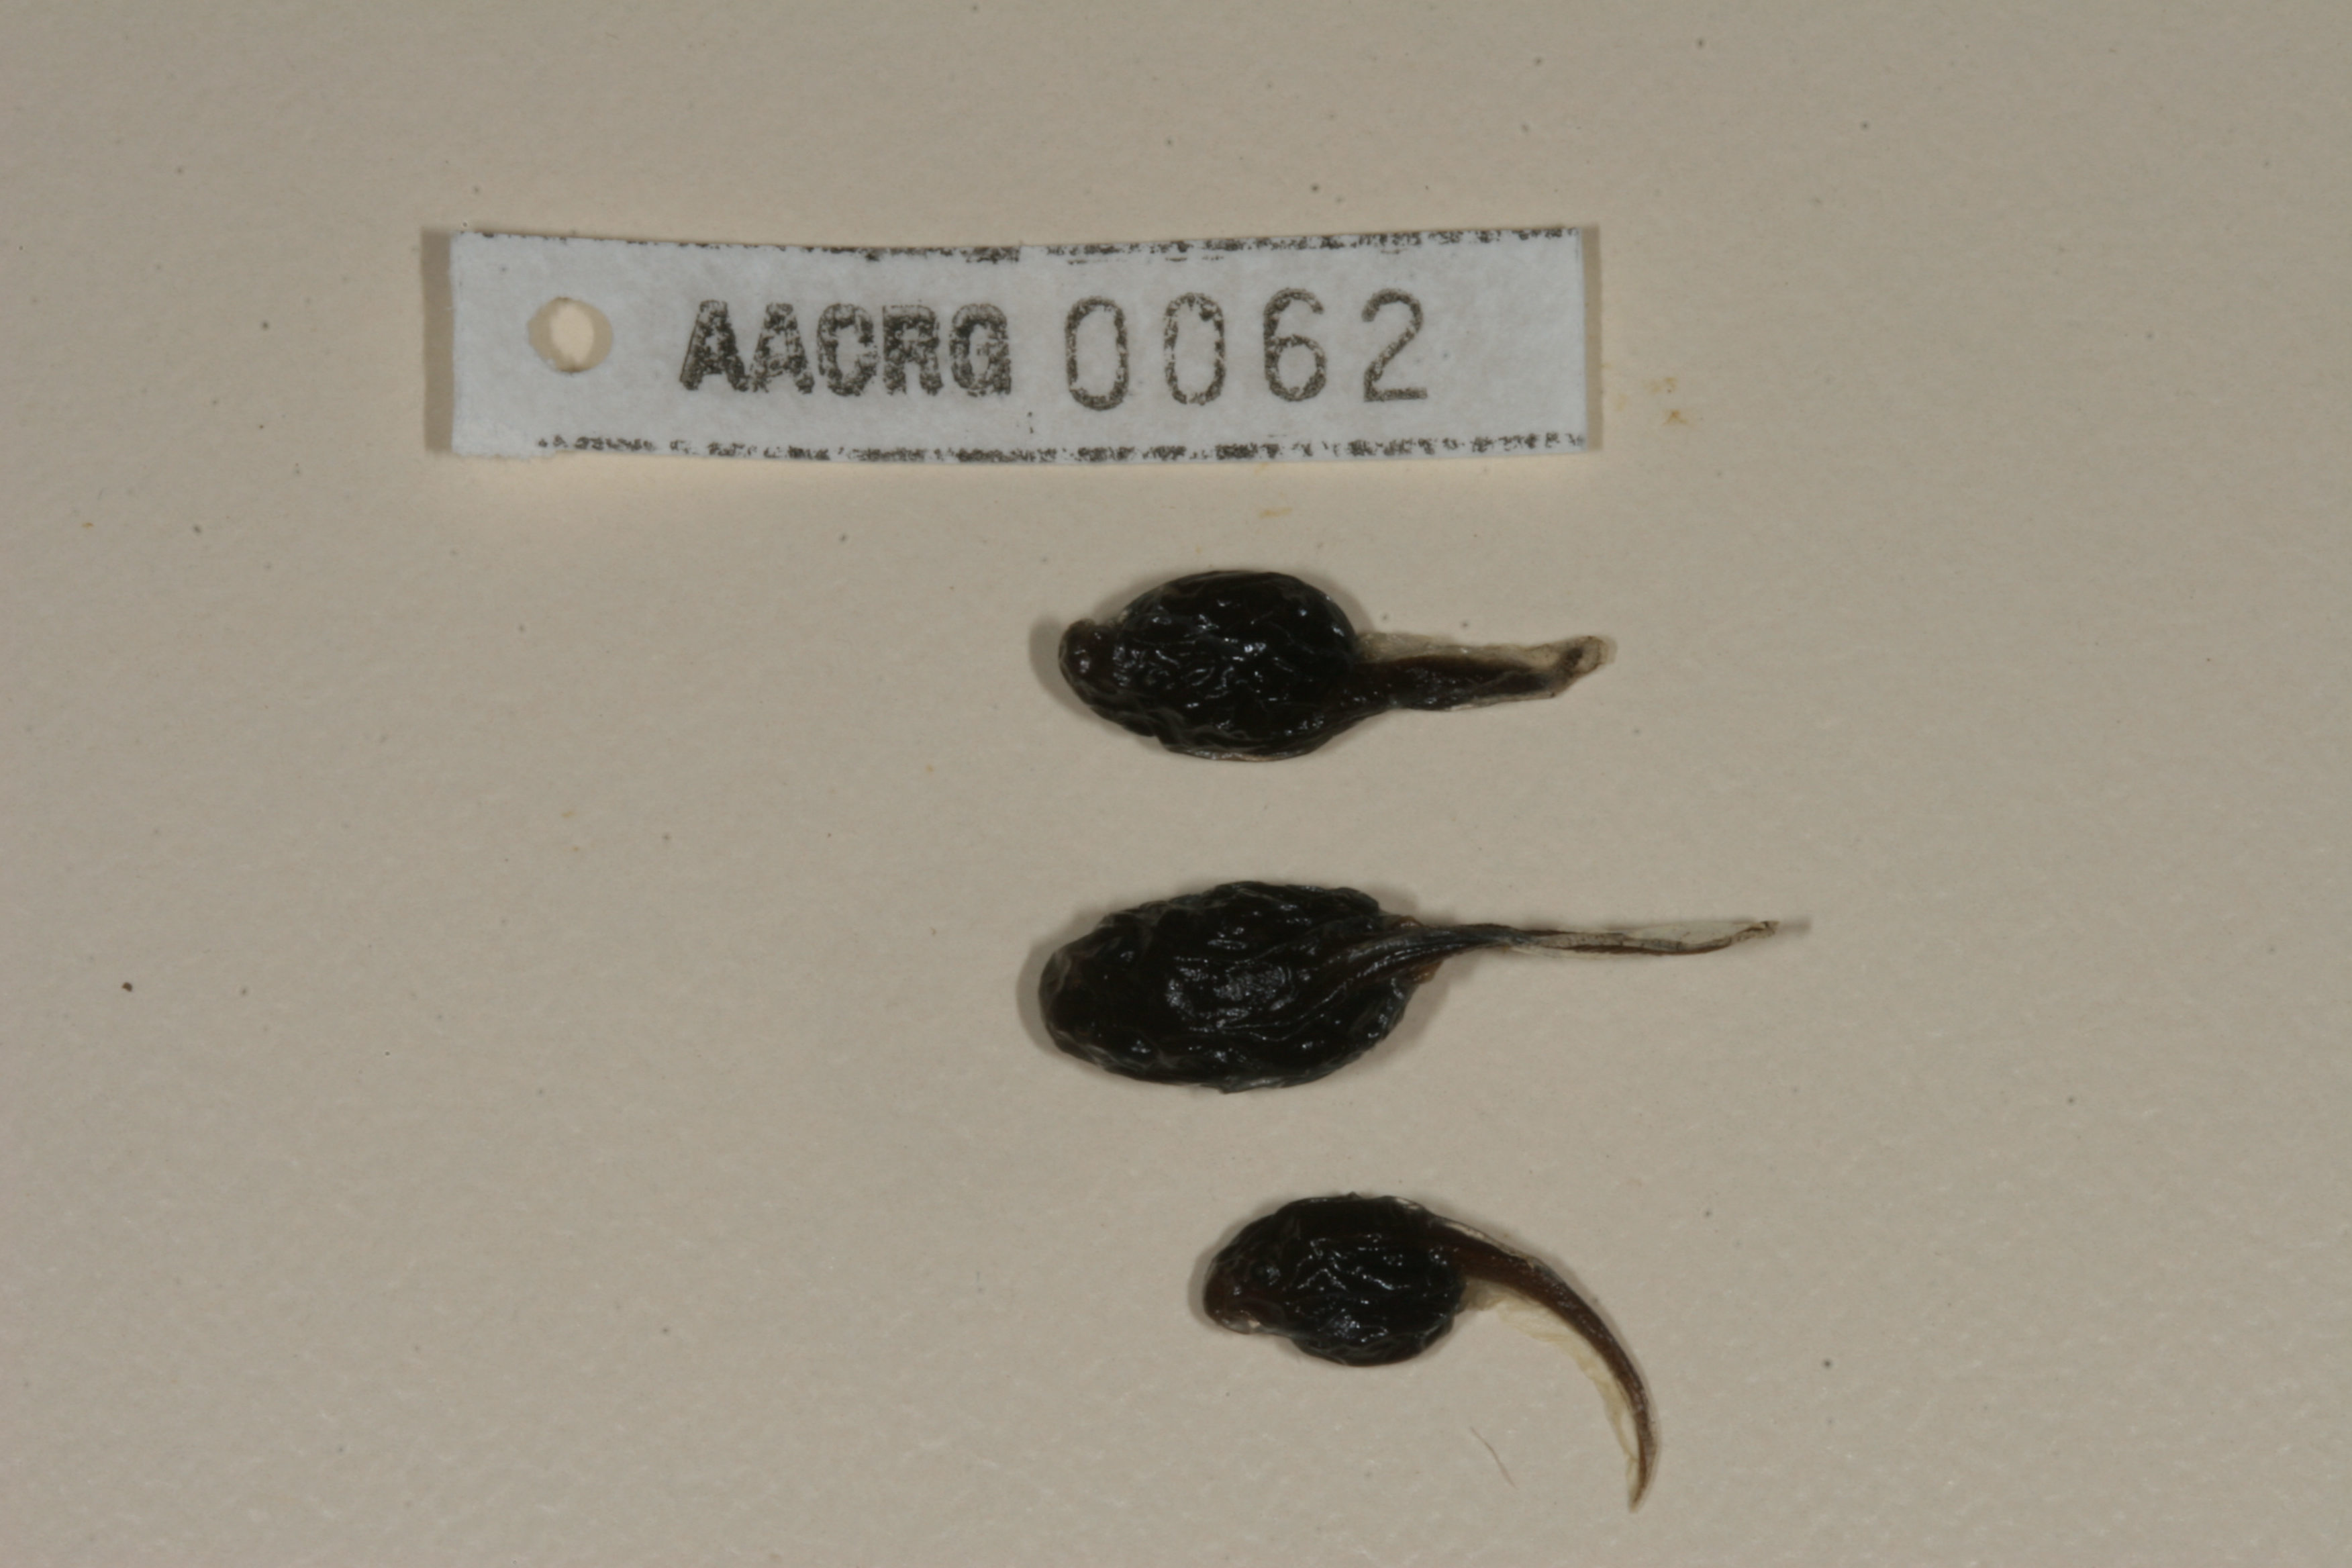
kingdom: Animalia
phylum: Chordata
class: Amphibia
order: Anura
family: Bufonidae
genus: Sclerophrys
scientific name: Sclerophrys poweri
